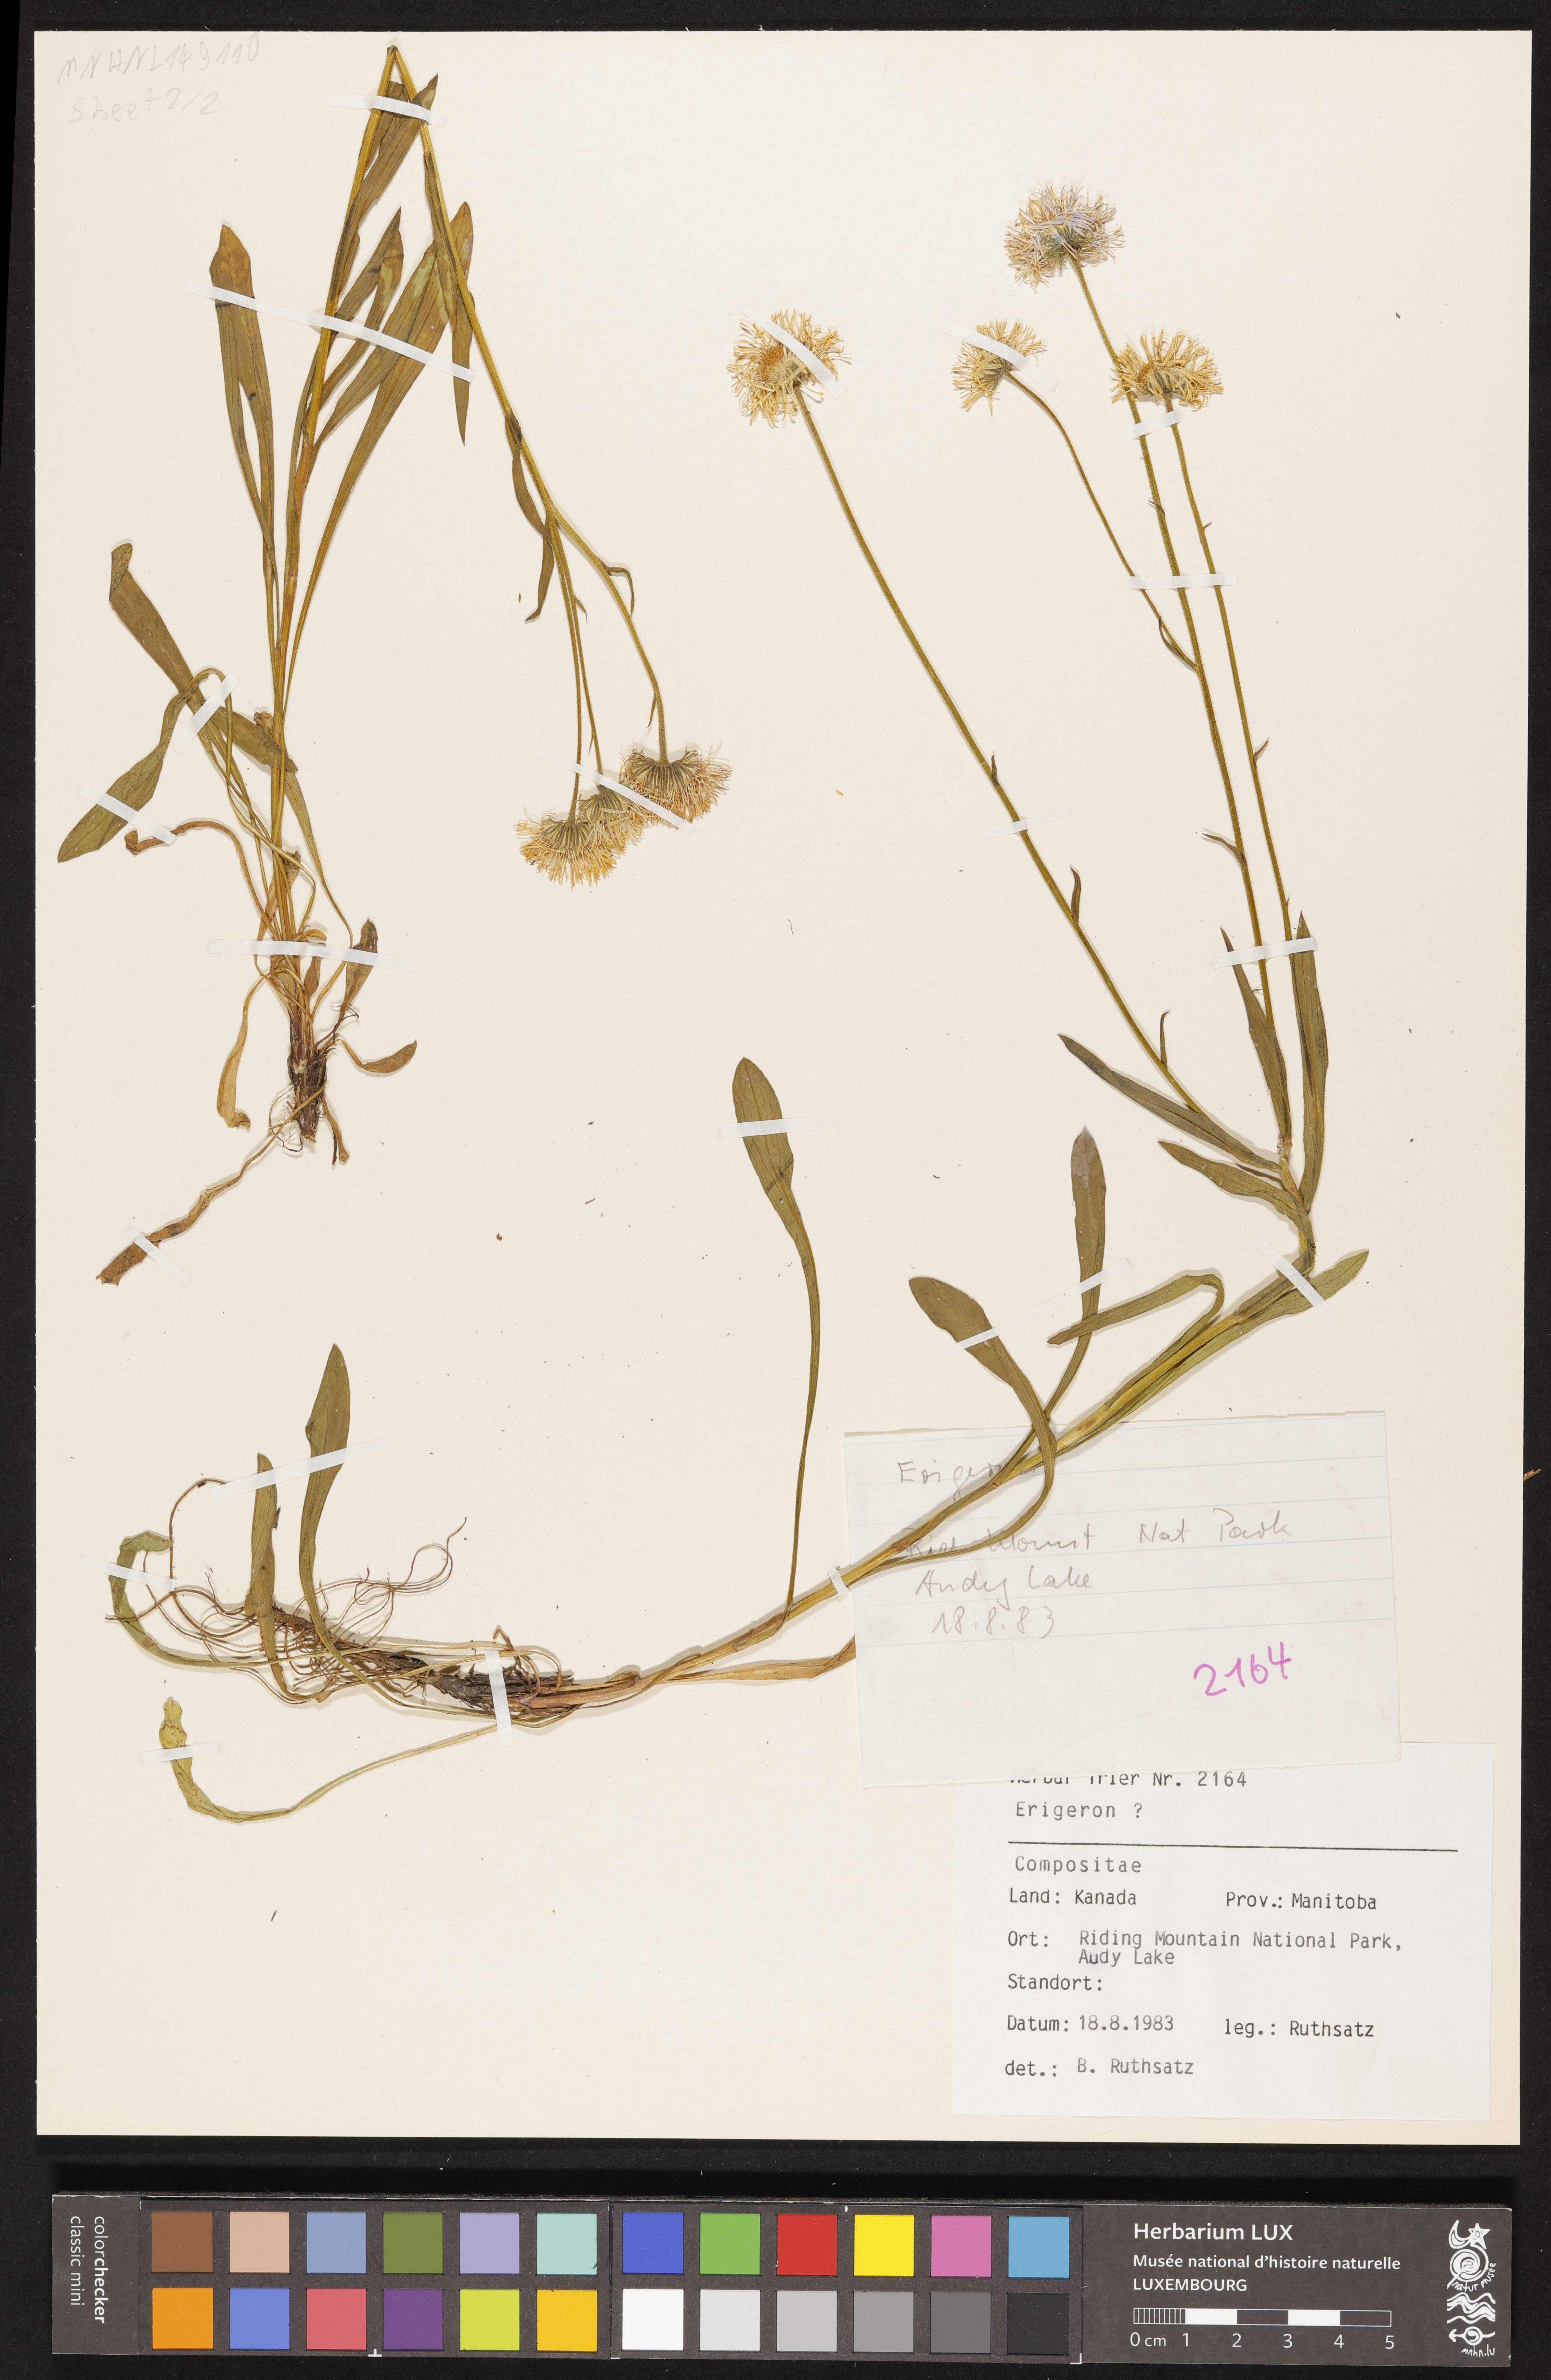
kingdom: Plantae
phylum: Tracheophyta
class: Magnoliopsida
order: Asterales
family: Asteraceae
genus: Erigeron
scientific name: Erigeron
